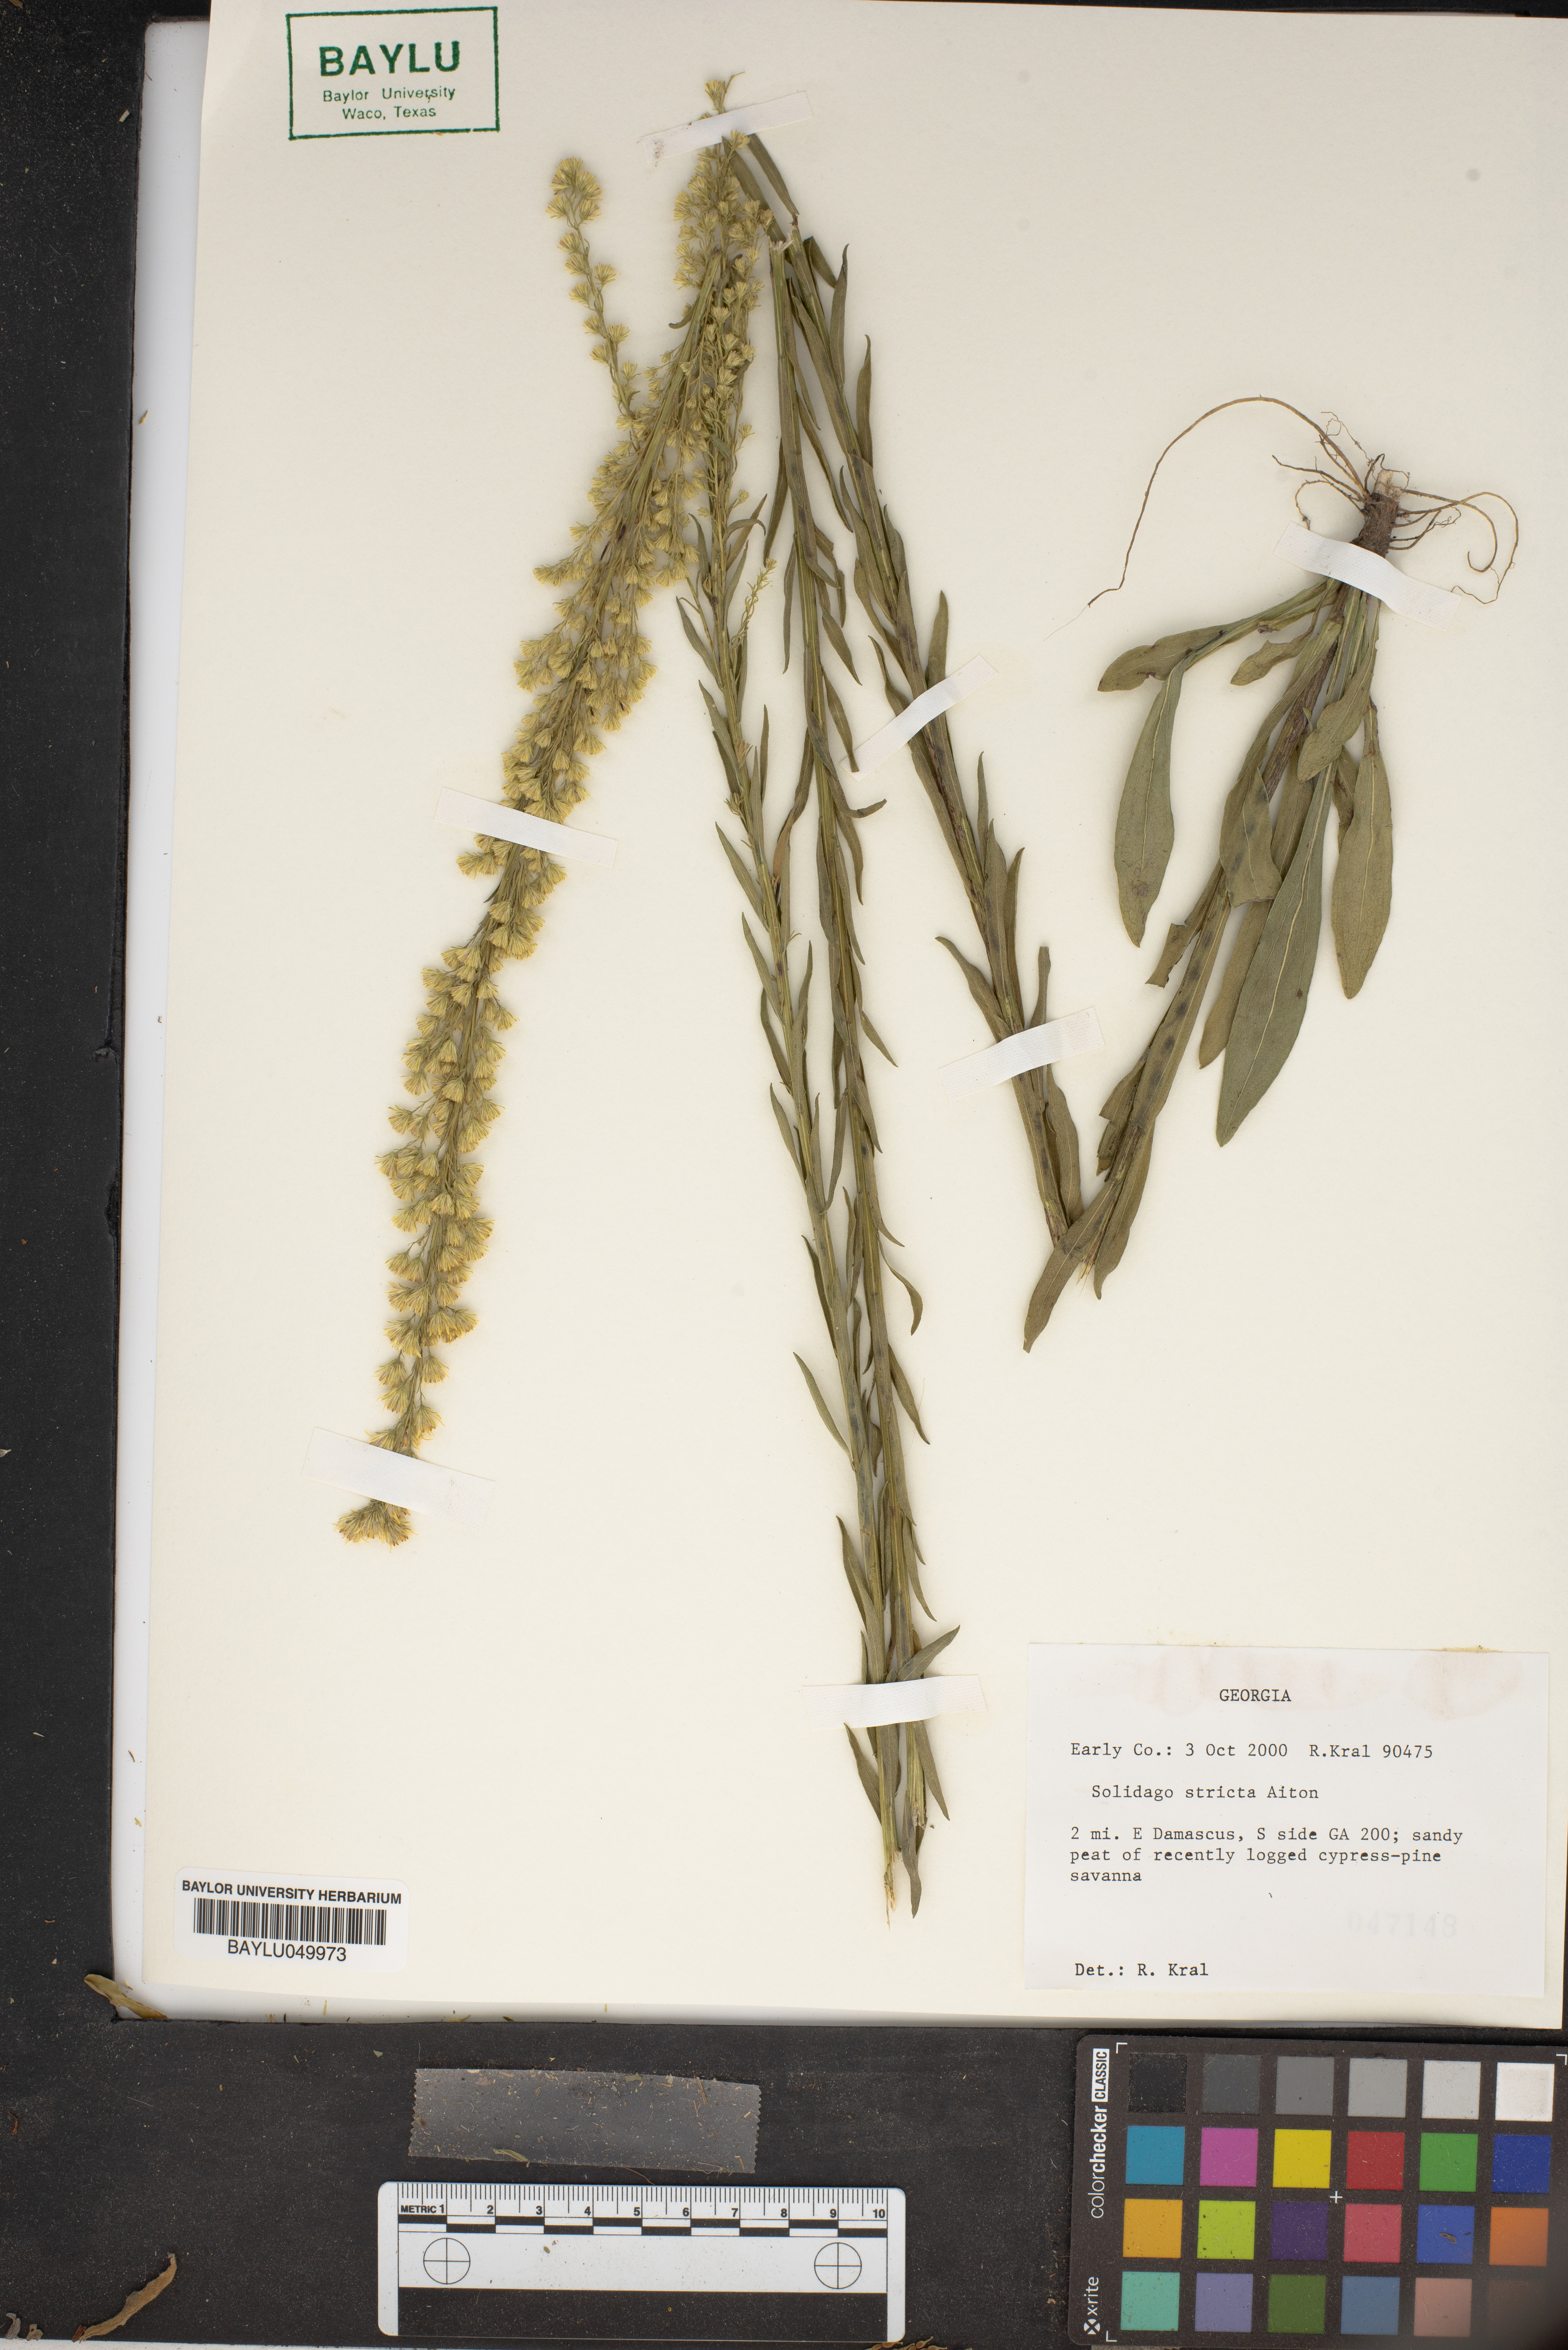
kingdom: Plantae
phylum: Tracheophyta
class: Magnoliopsida
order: Asterales
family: Asteraceae
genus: Solidago
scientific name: Solidago stricta
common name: Pine barren bog goldenrod
